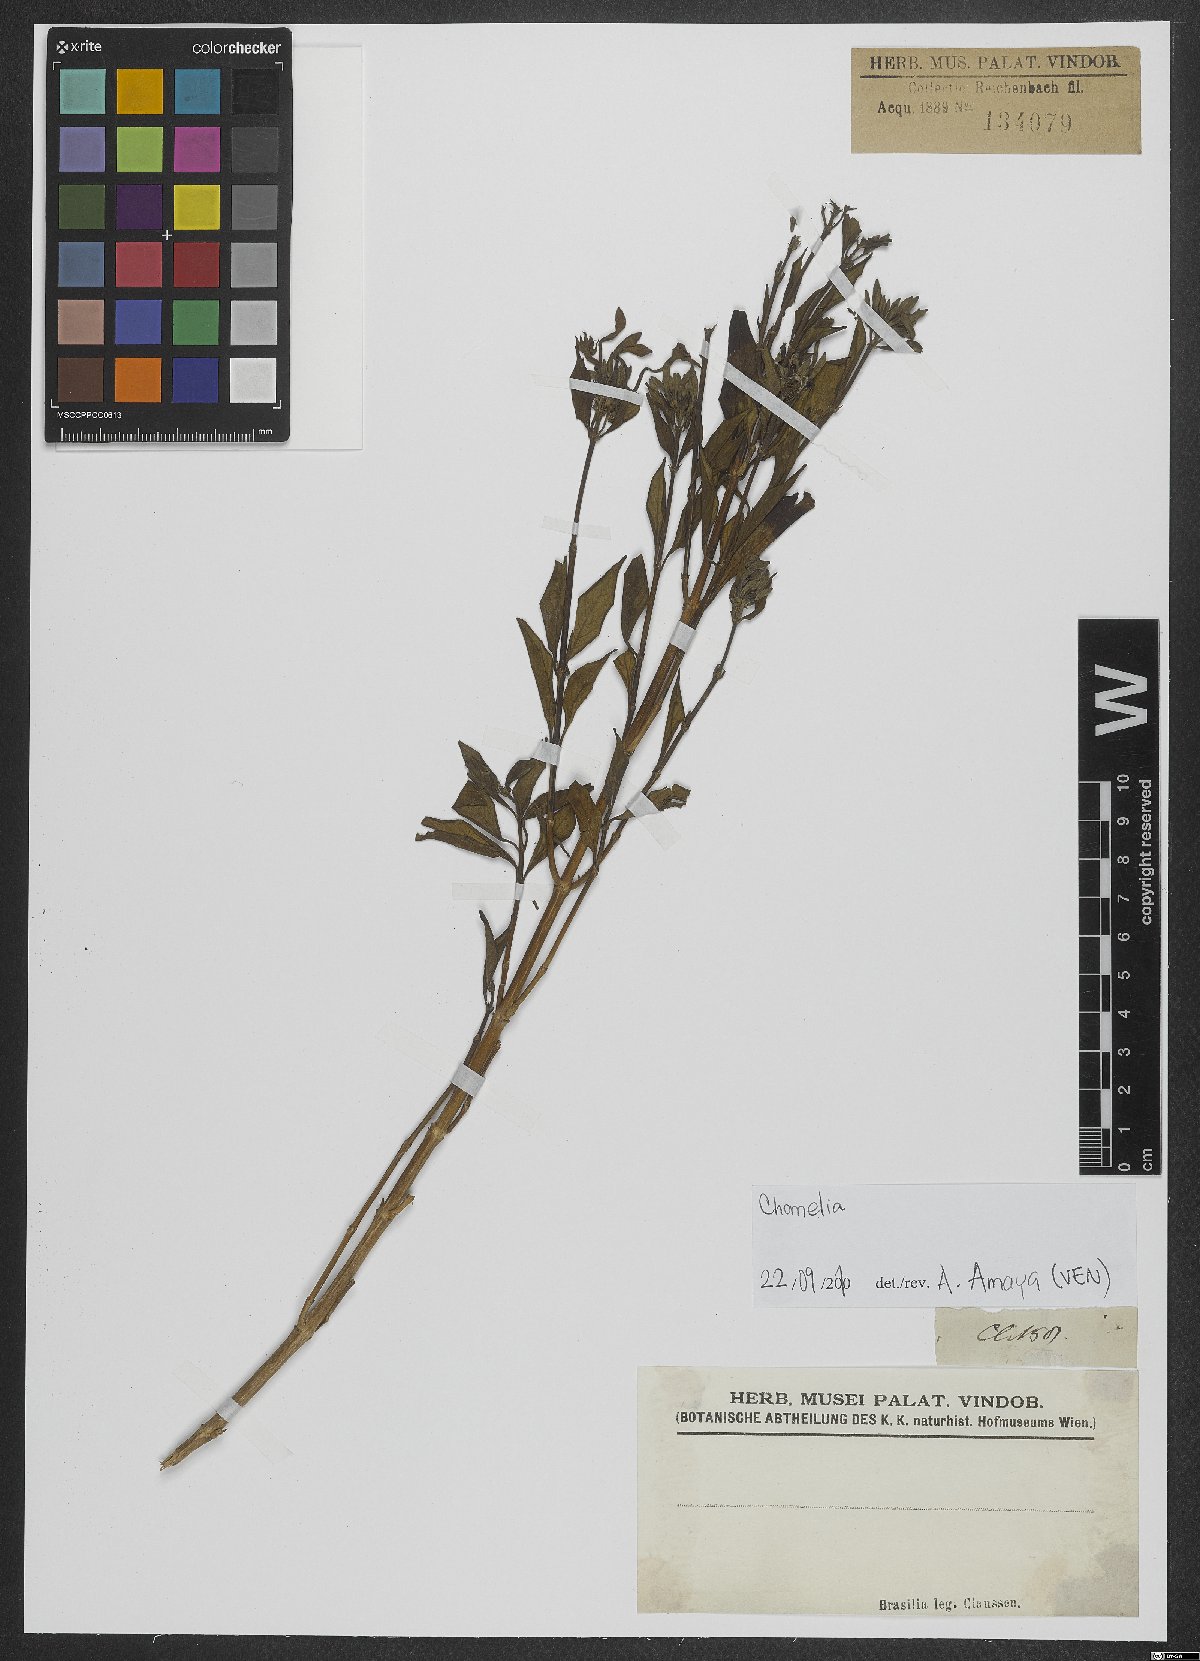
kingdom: Plantae
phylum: Tracheophyta
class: Magnoliopsida
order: Gentianales
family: Rubiaceae
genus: Chomelia
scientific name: Chomelia
